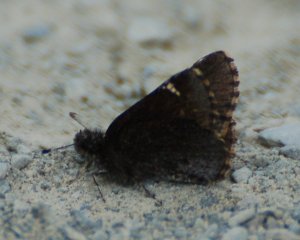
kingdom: Animalia
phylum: Arthropoda
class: Insecta
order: Lepidoptera
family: Hesperiidae
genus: Mastor
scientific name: Mastor vialis
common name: Common Roadside-Skipper
